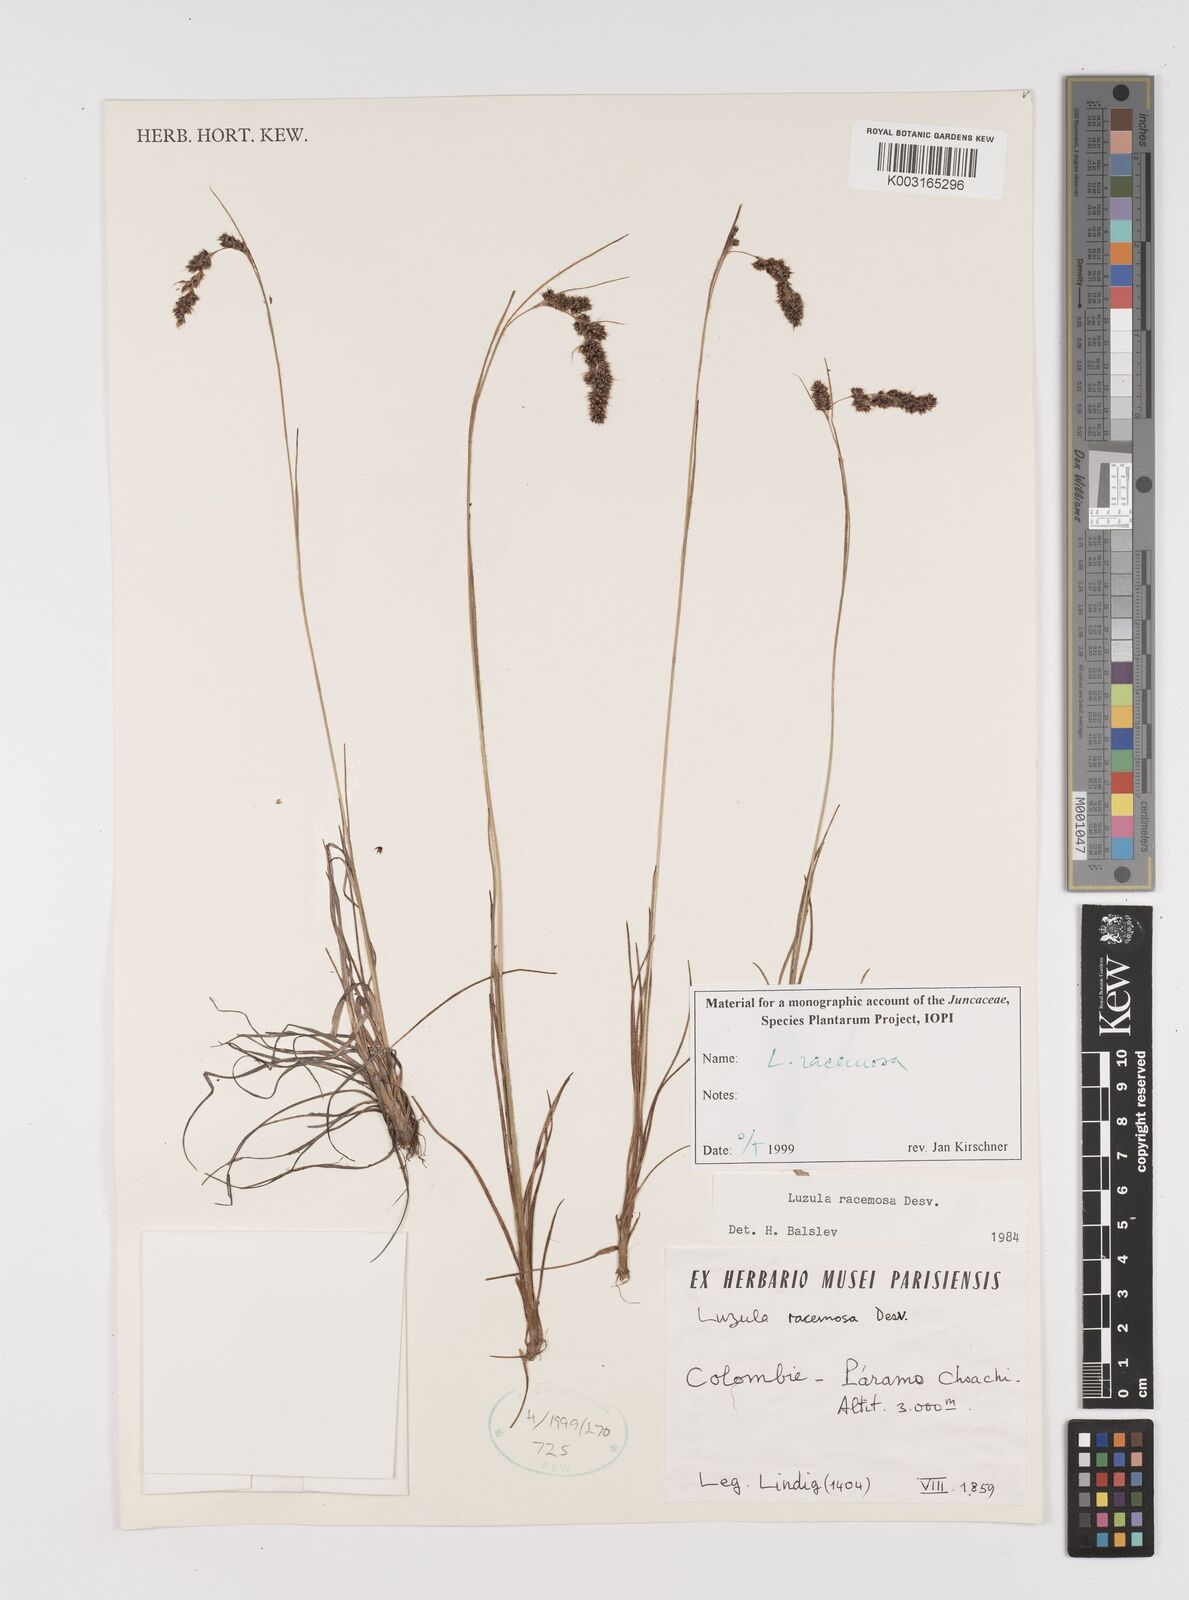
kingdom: Plantae
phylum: Tracheophyta
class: Liliopsida
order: Poales
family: Juncaceae
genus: Luzula
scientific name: Luzula racemosa
